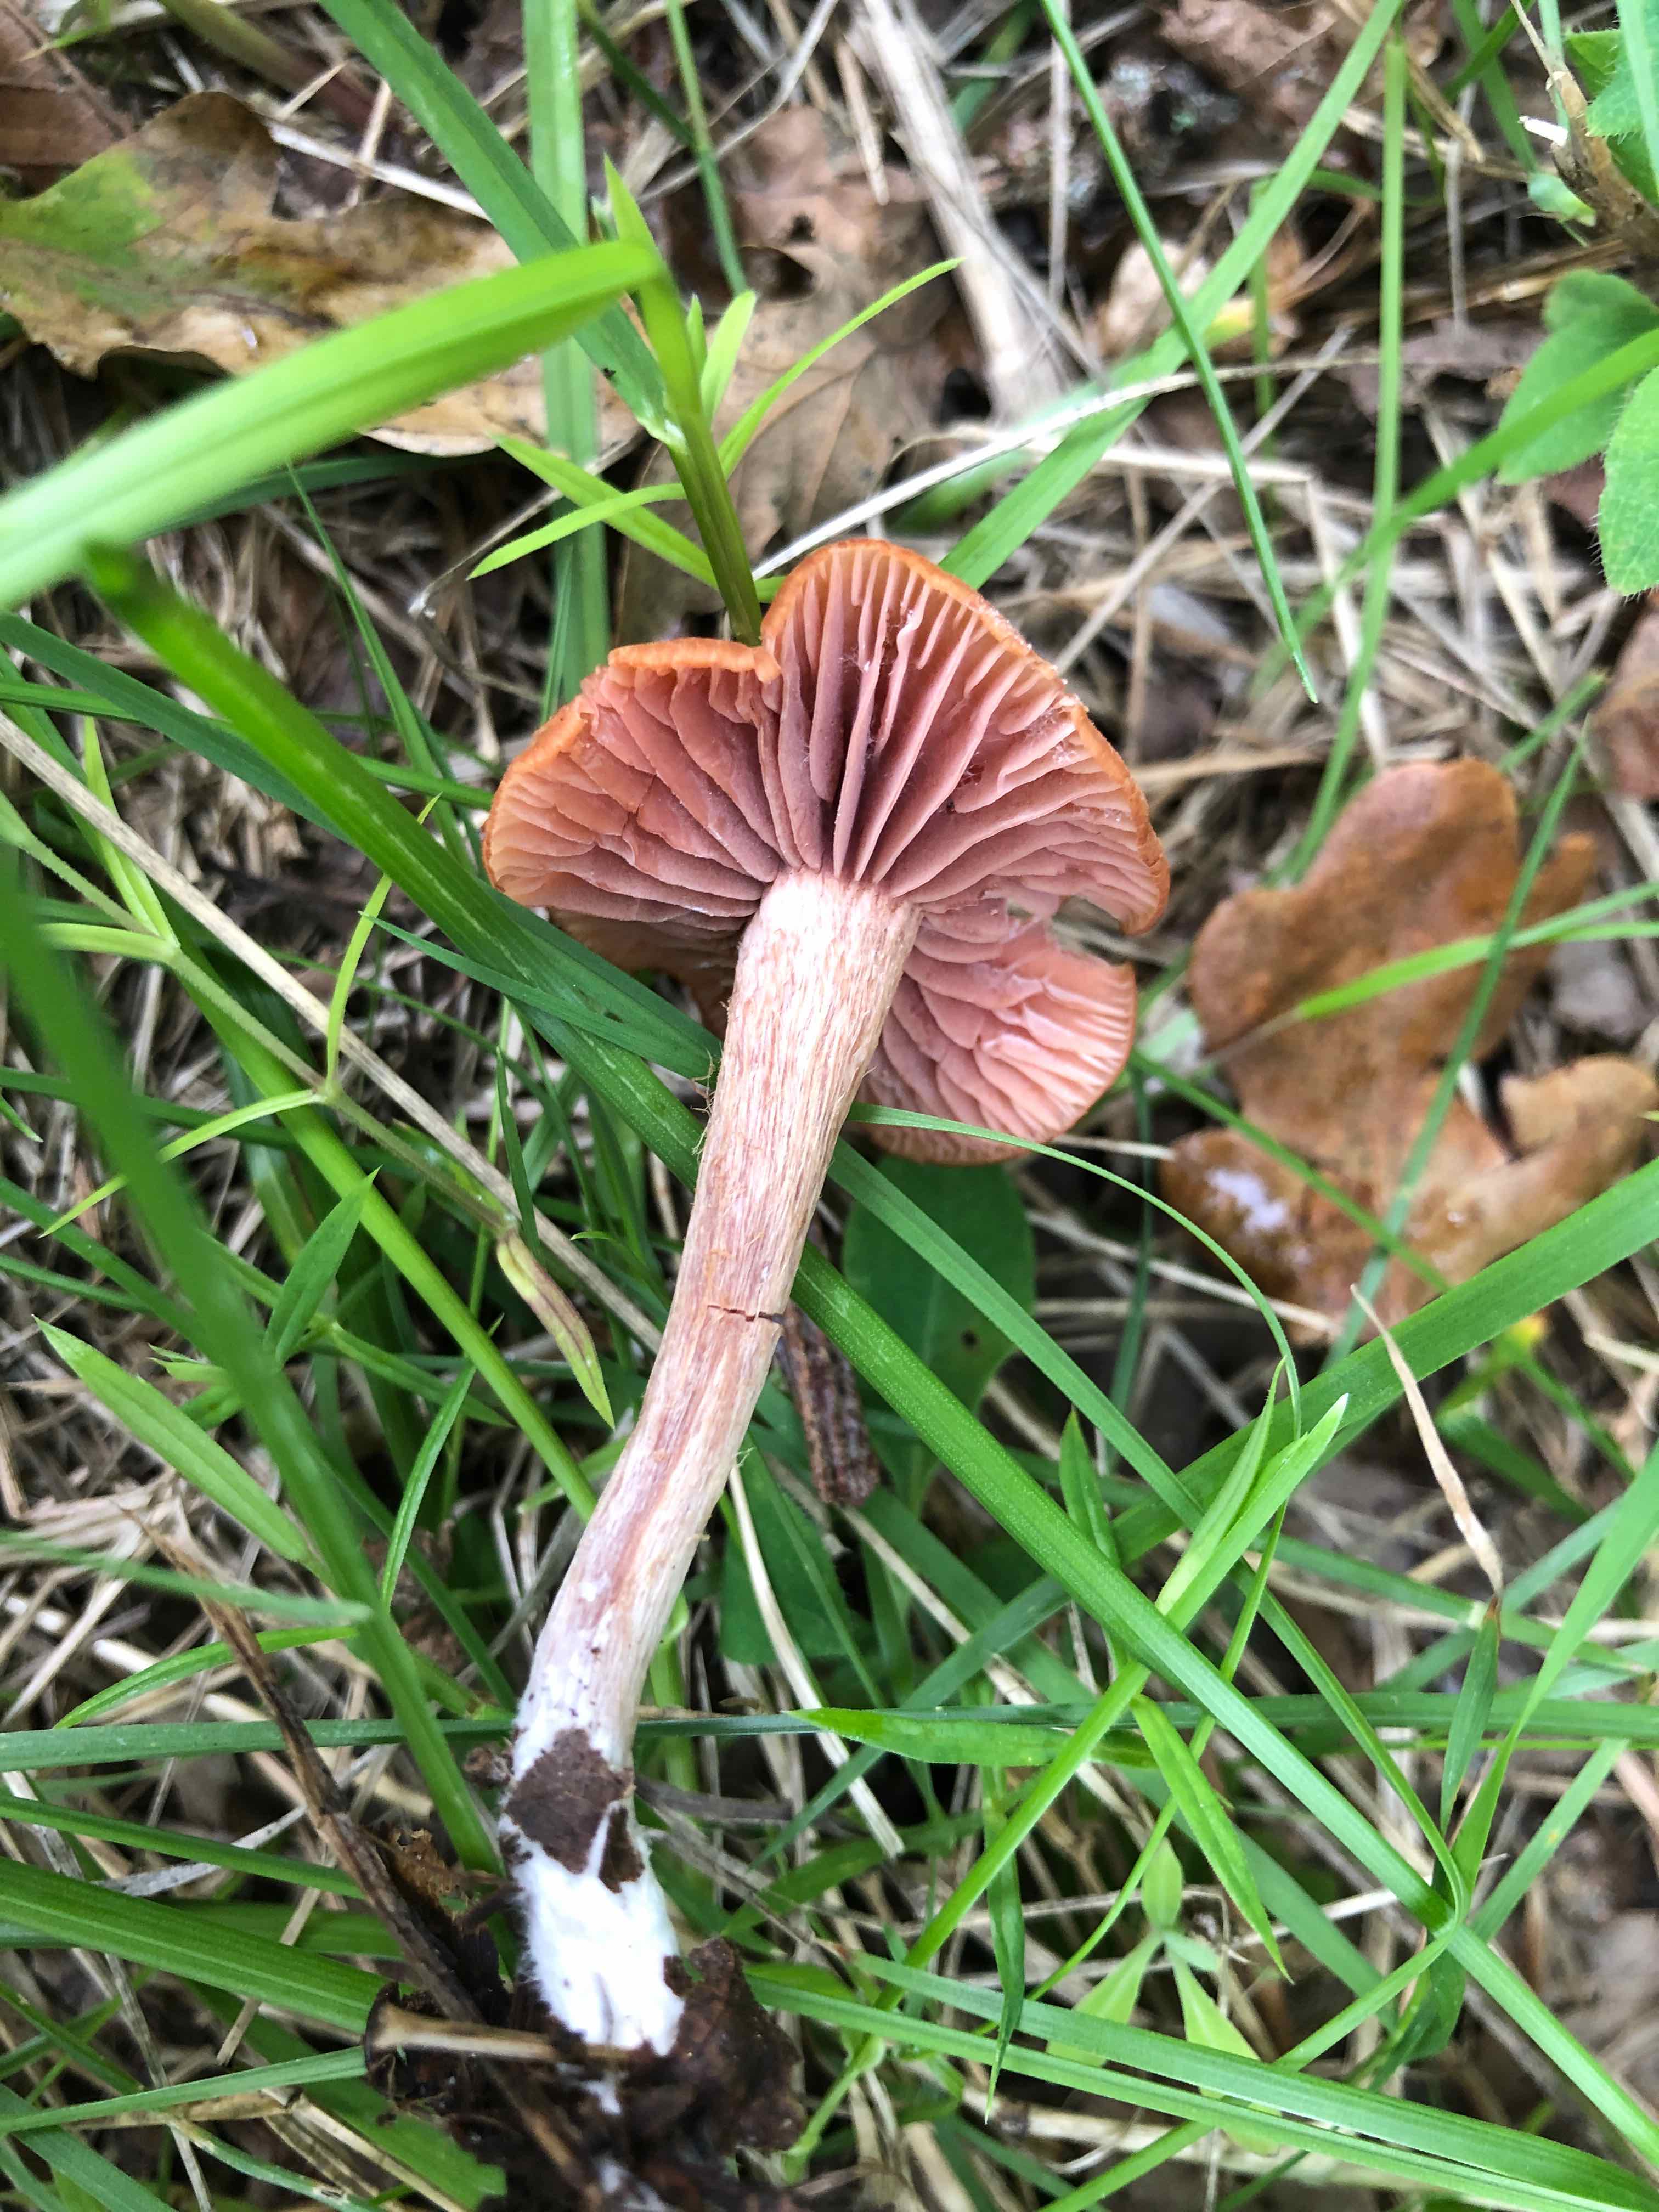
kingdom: Fungi
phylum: Basidiomycota
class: Agaricomycetes
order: Agaricales
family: Hydnangiaceae
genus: Laccaria
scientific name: Laccaria laccata
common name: rød ametysthat
